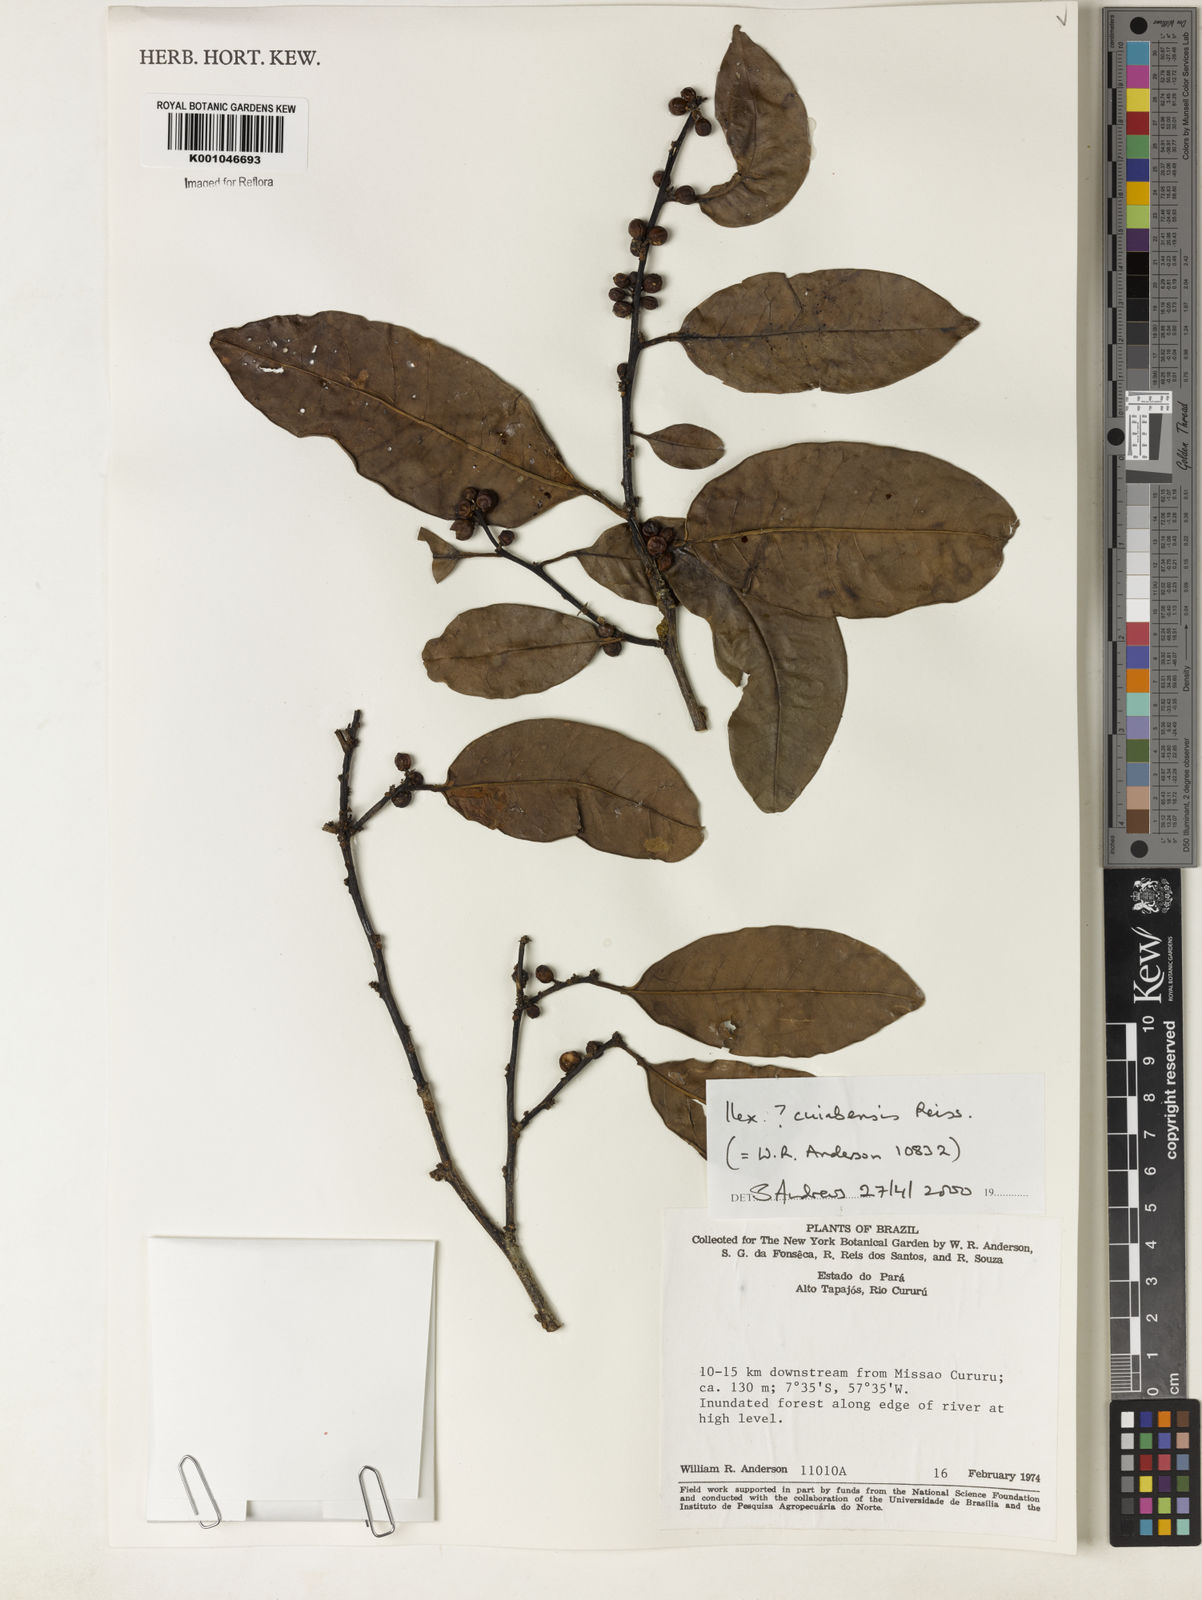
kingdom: Plantae
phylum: Tracheophyta
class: Magnoliopsida
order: Aquifoliales
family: Aquifoliaceae
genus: Ilex
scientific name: Ilex cuiabensis
